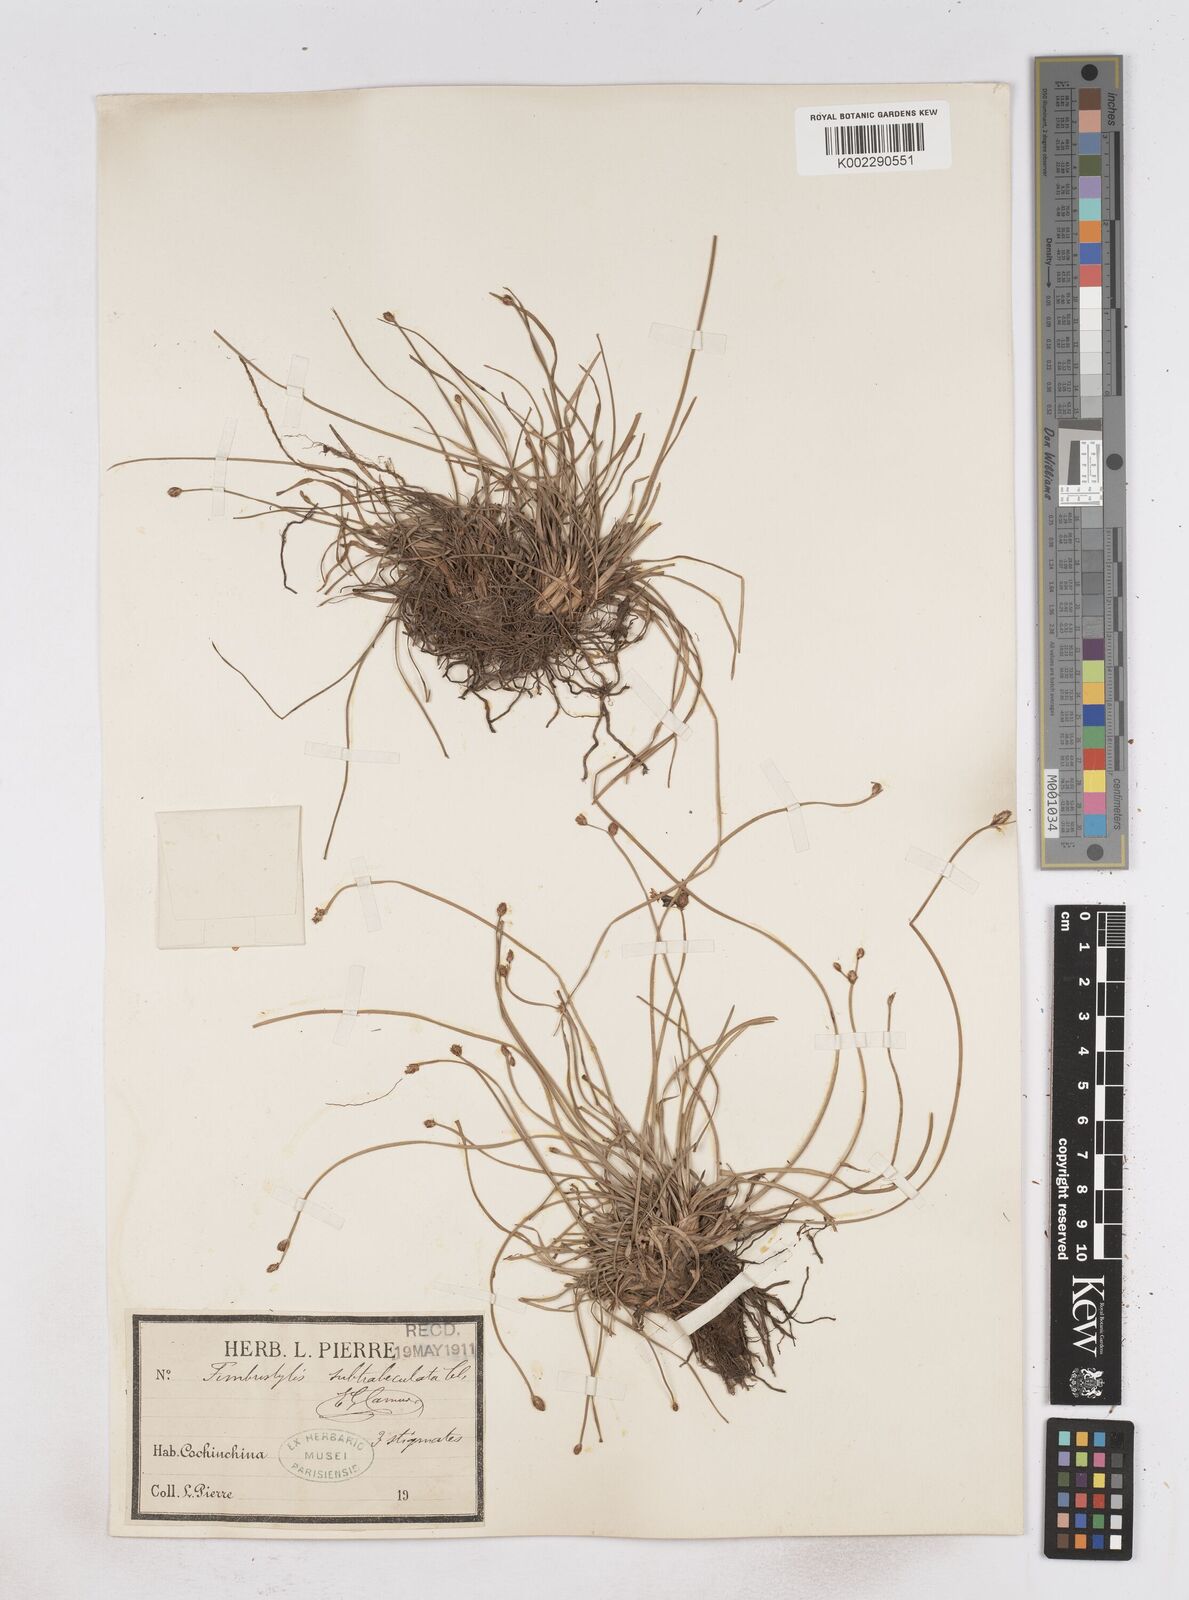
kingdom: Plantae
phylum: Tracheophyta
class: Liliopsida
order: Poales
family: Cyperaceae
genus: Fimbristylis
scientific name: Fimbristylis umbellaris
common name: Globular fimbristylis
